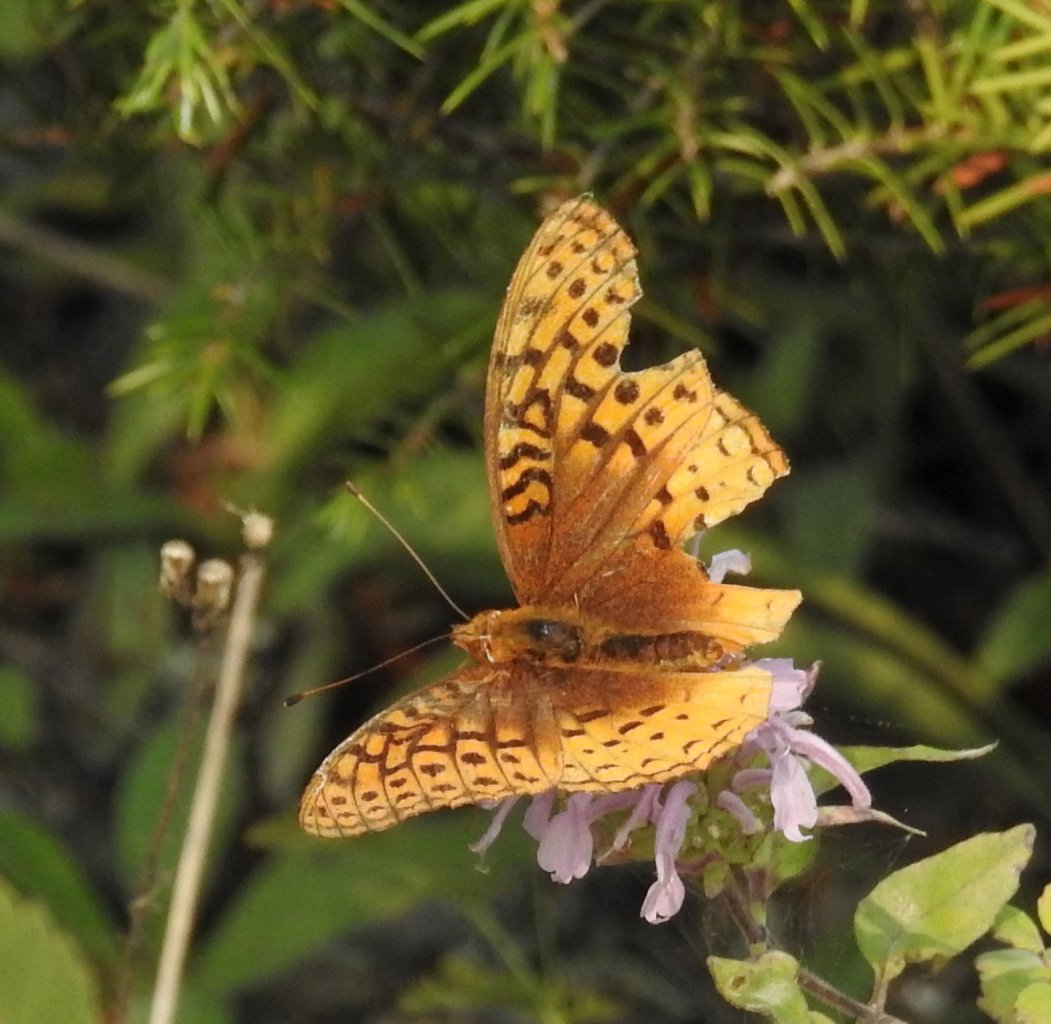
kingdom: Animalia
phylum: Arthropoda
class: Insecta
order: Lepidoptera
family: Nymphalidae
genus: Speyeria
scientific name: Speyeria cybele
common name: Great Spangled Fritillary
